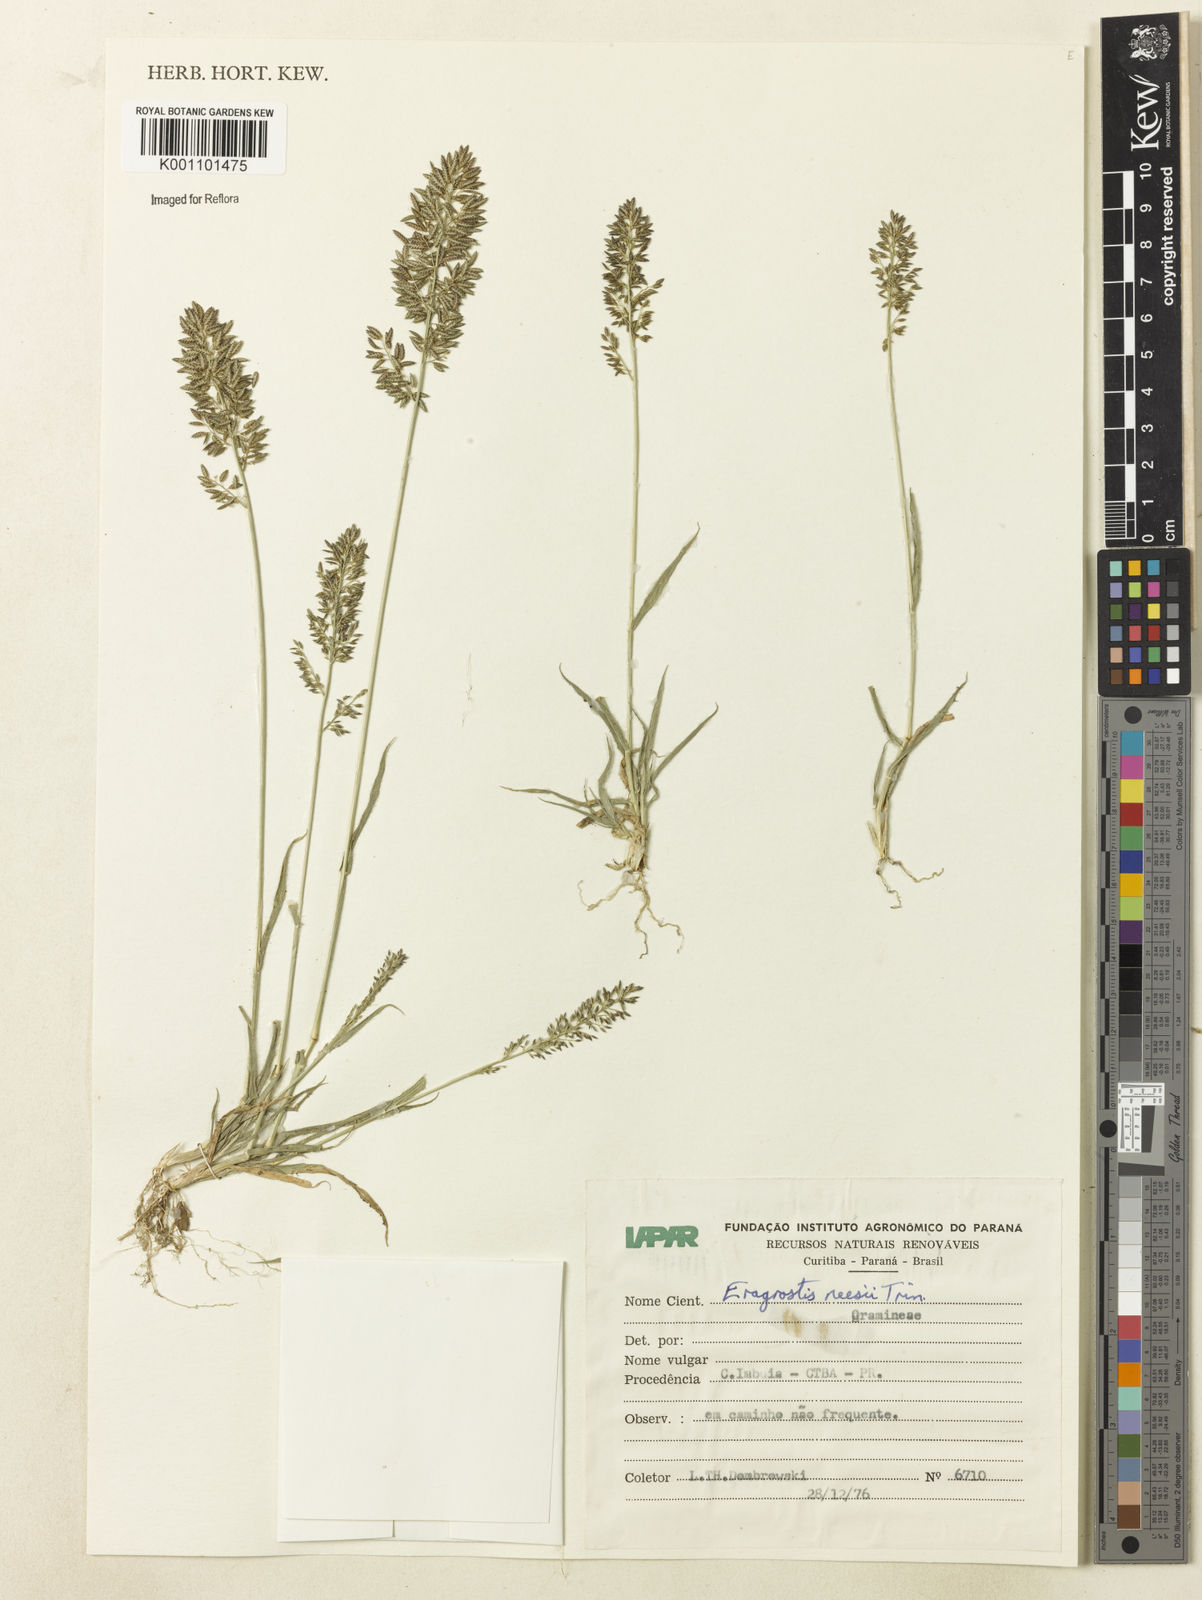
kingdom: Plantae
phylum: Tracheophyta
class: Liliopsida
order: Poales
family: Poaceae
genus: Eragrostis
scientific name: Eragrostis neesii
